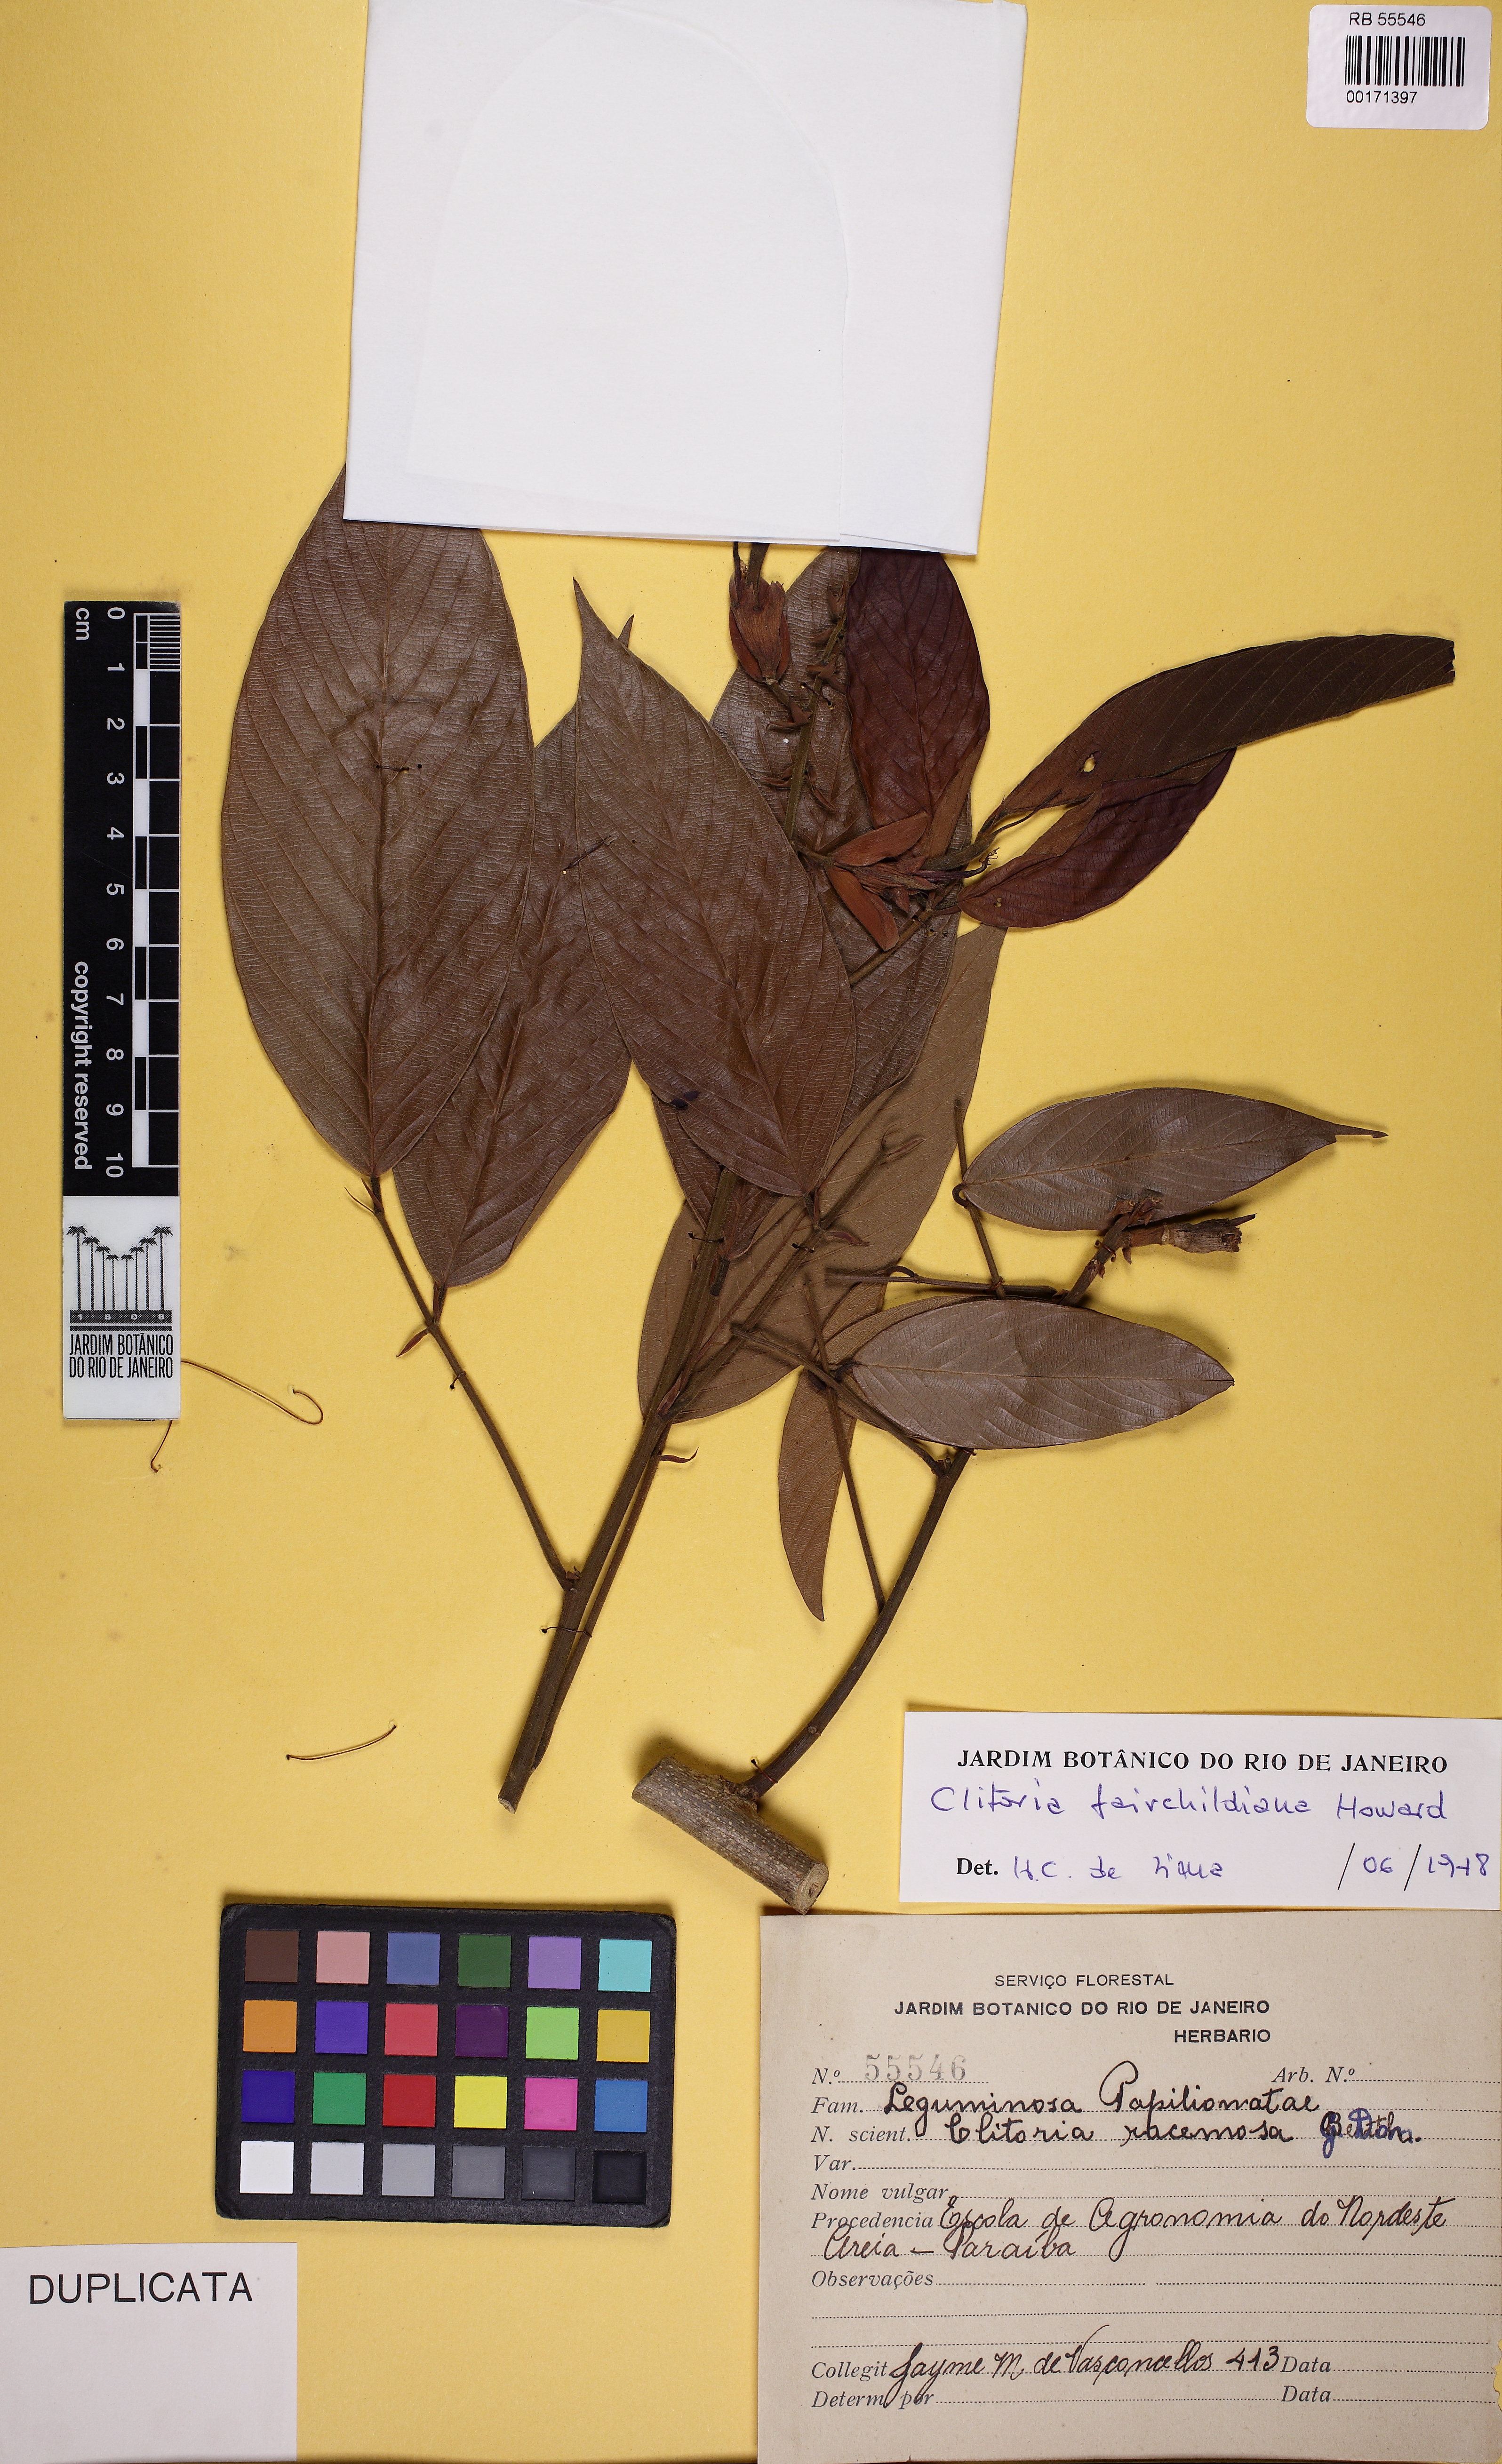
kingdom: Plantae
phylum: Tracheophyta
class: Magnoliopsida
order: Fabales
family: Fabaceae
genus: Clitoria
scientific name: Clitoria fairchildiana
